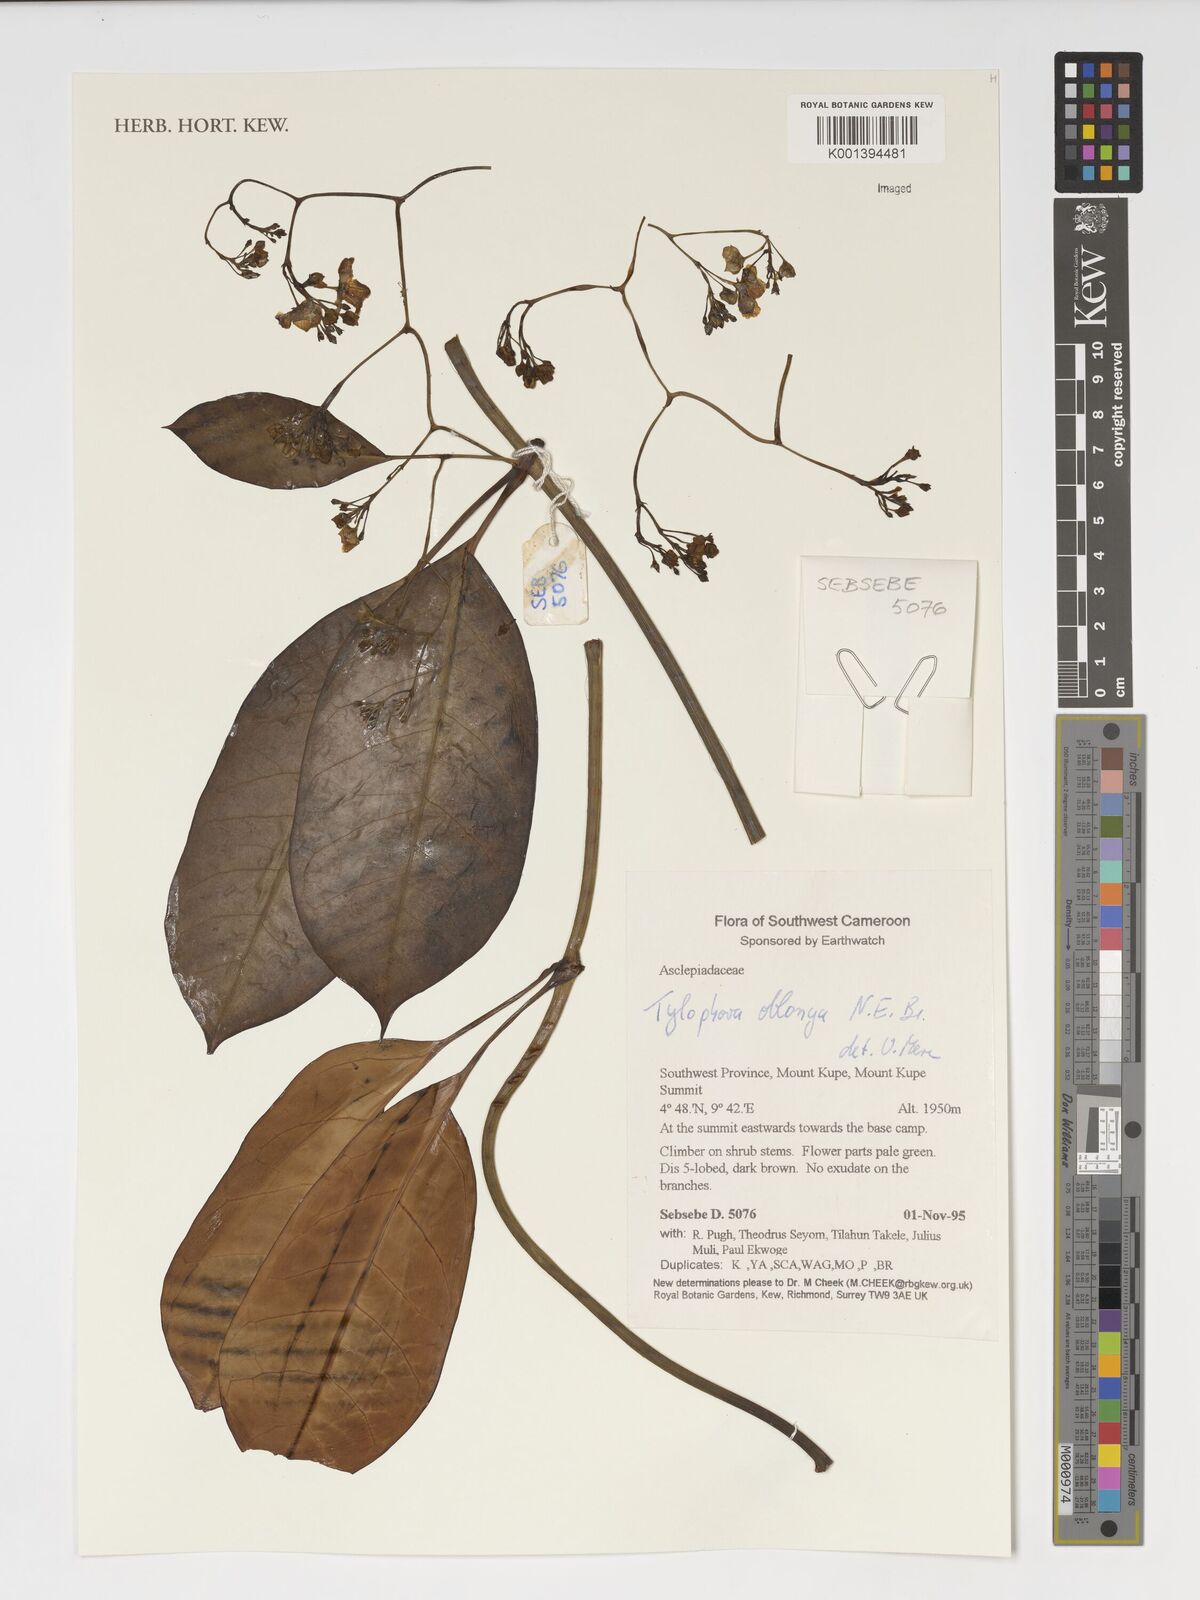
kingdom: Plantae
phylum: Tracheophyta
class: Magnoliopsida
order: Gentianales
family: Apocynaceae
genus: Vincetoxicum
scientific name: Vincetoxicum oblongum
